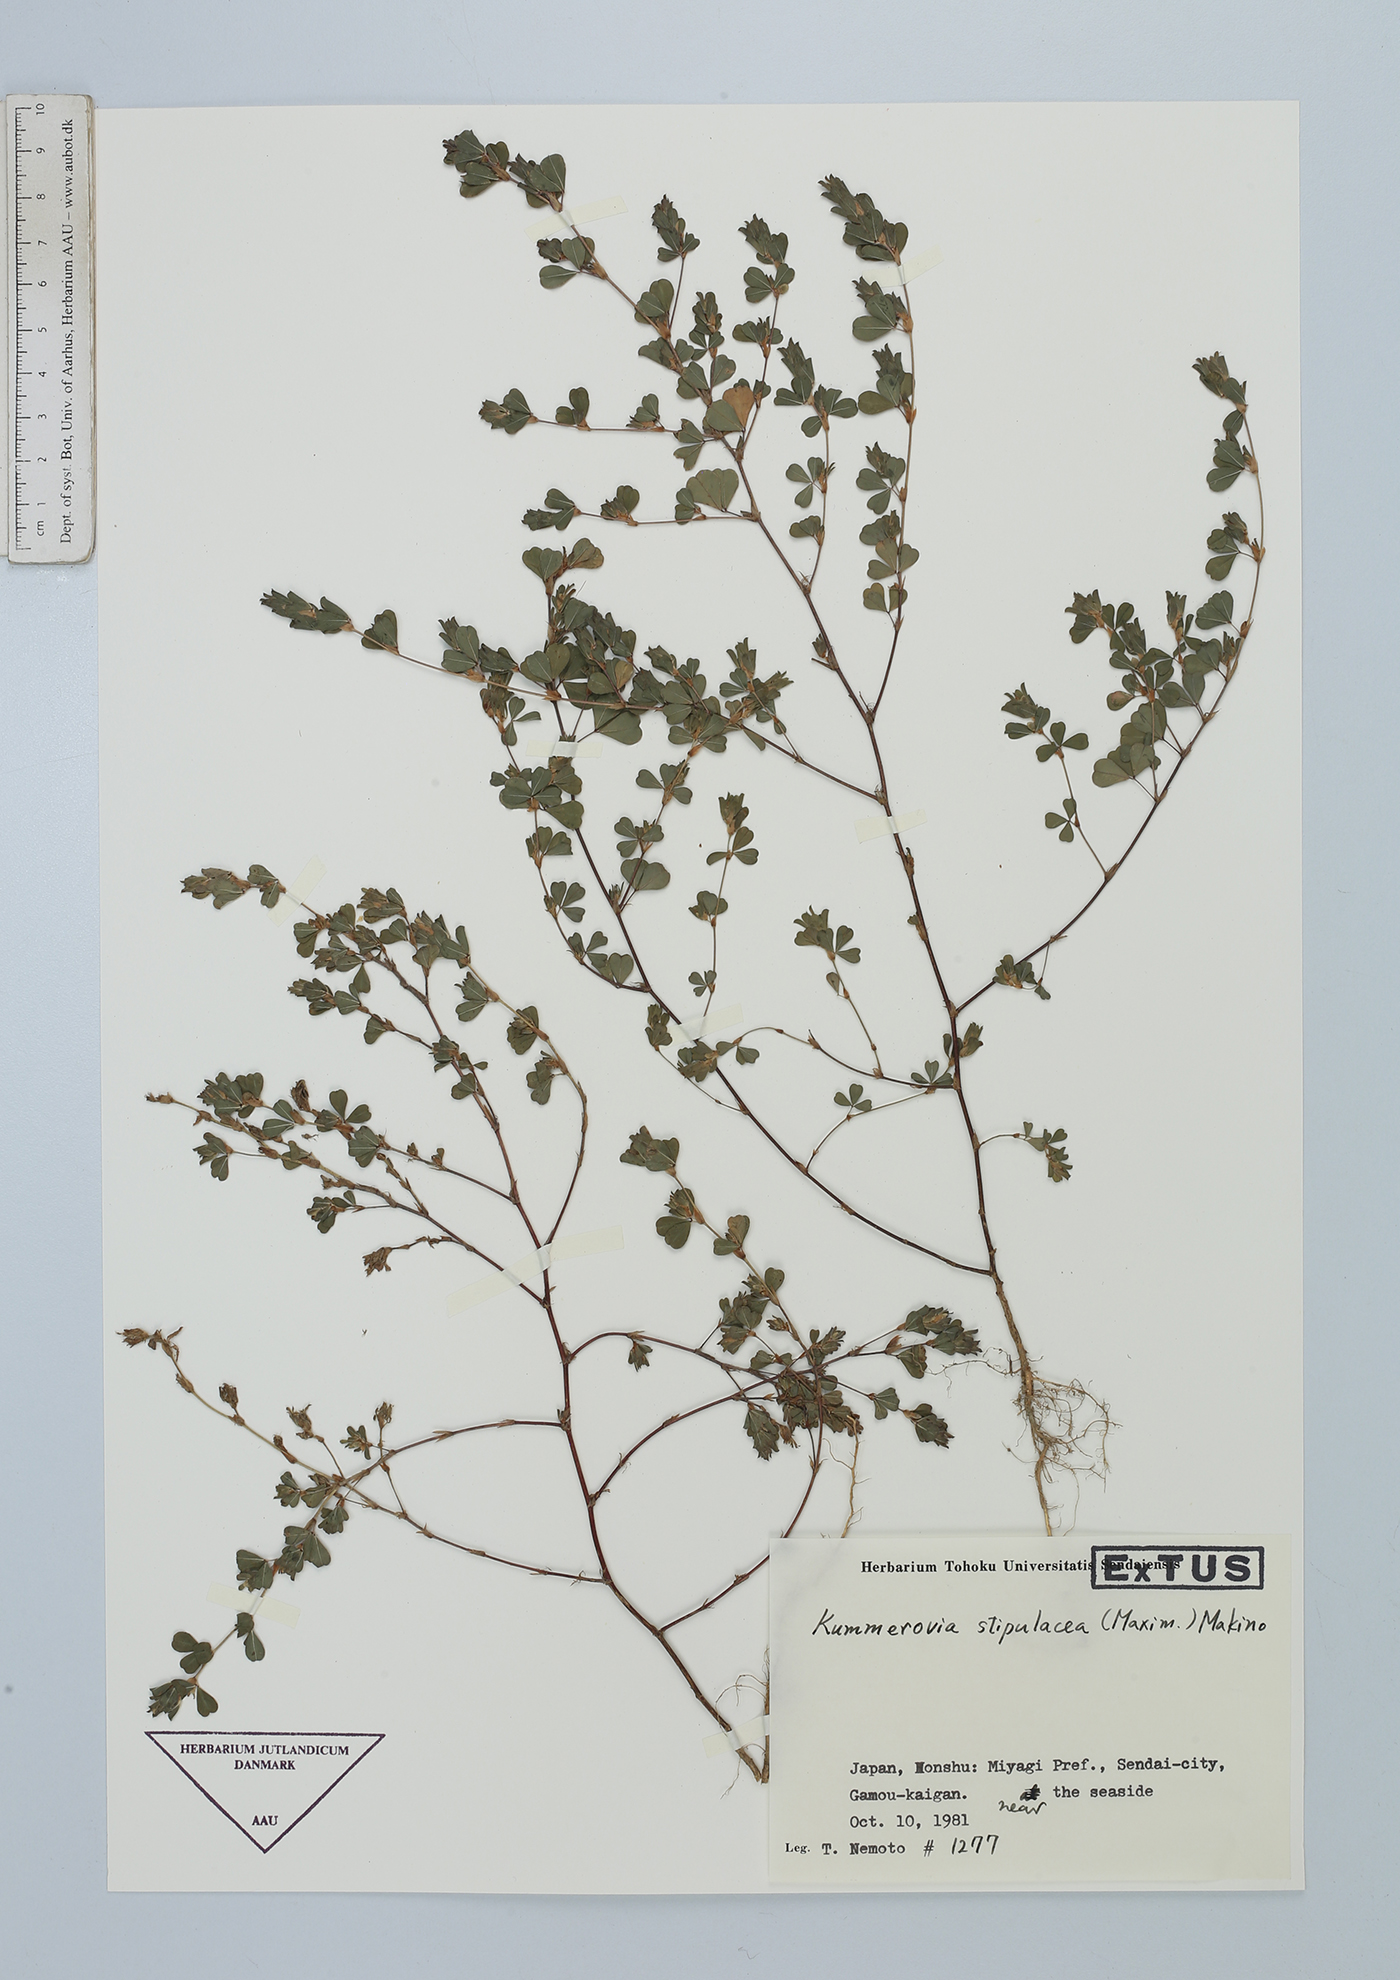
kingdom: Plantae
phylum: Tracheophyta
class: Magnoliopsida
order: Fabales
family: Fabaceae
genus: Kummerowia
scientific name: Kummerowia stipulacea
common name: Korean clover
